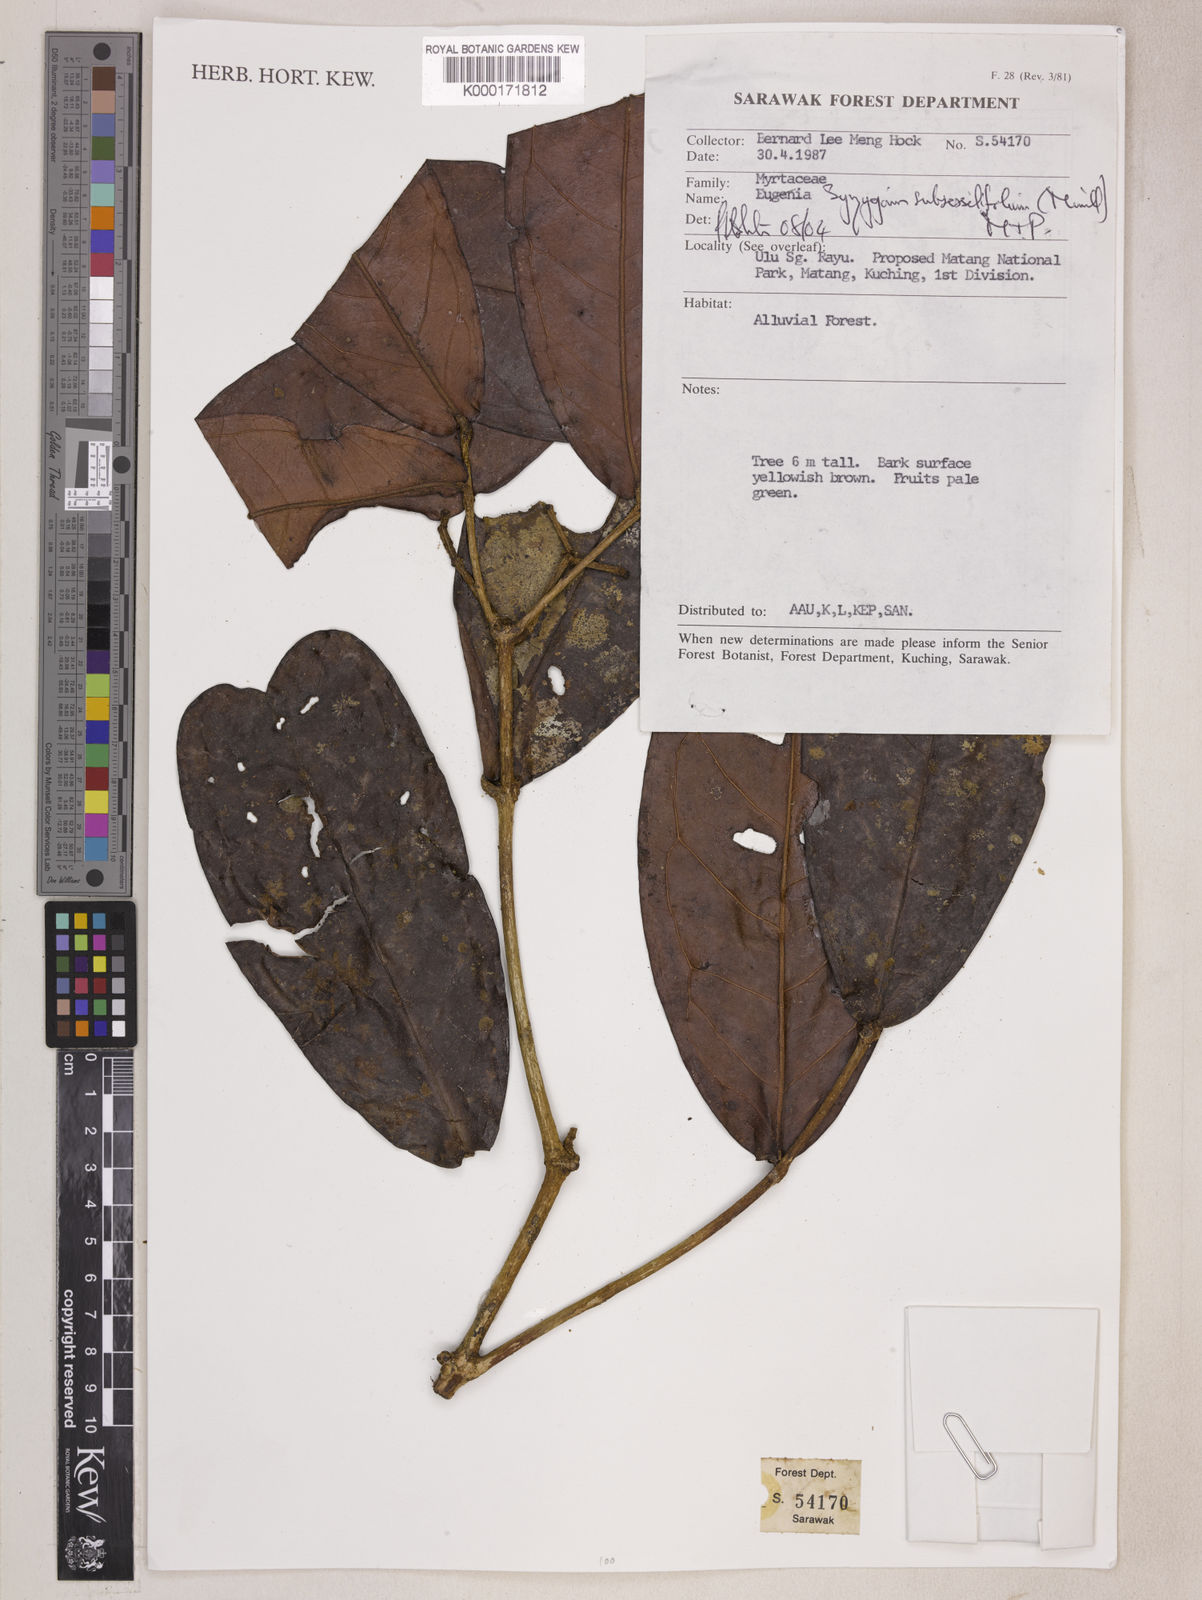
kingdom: Plantae
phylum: Tracheophyta
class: Magnoliopsida
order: Myrtales
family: Myrtaceae
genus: Syzygium
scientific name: Syzygium subsessilifolium
